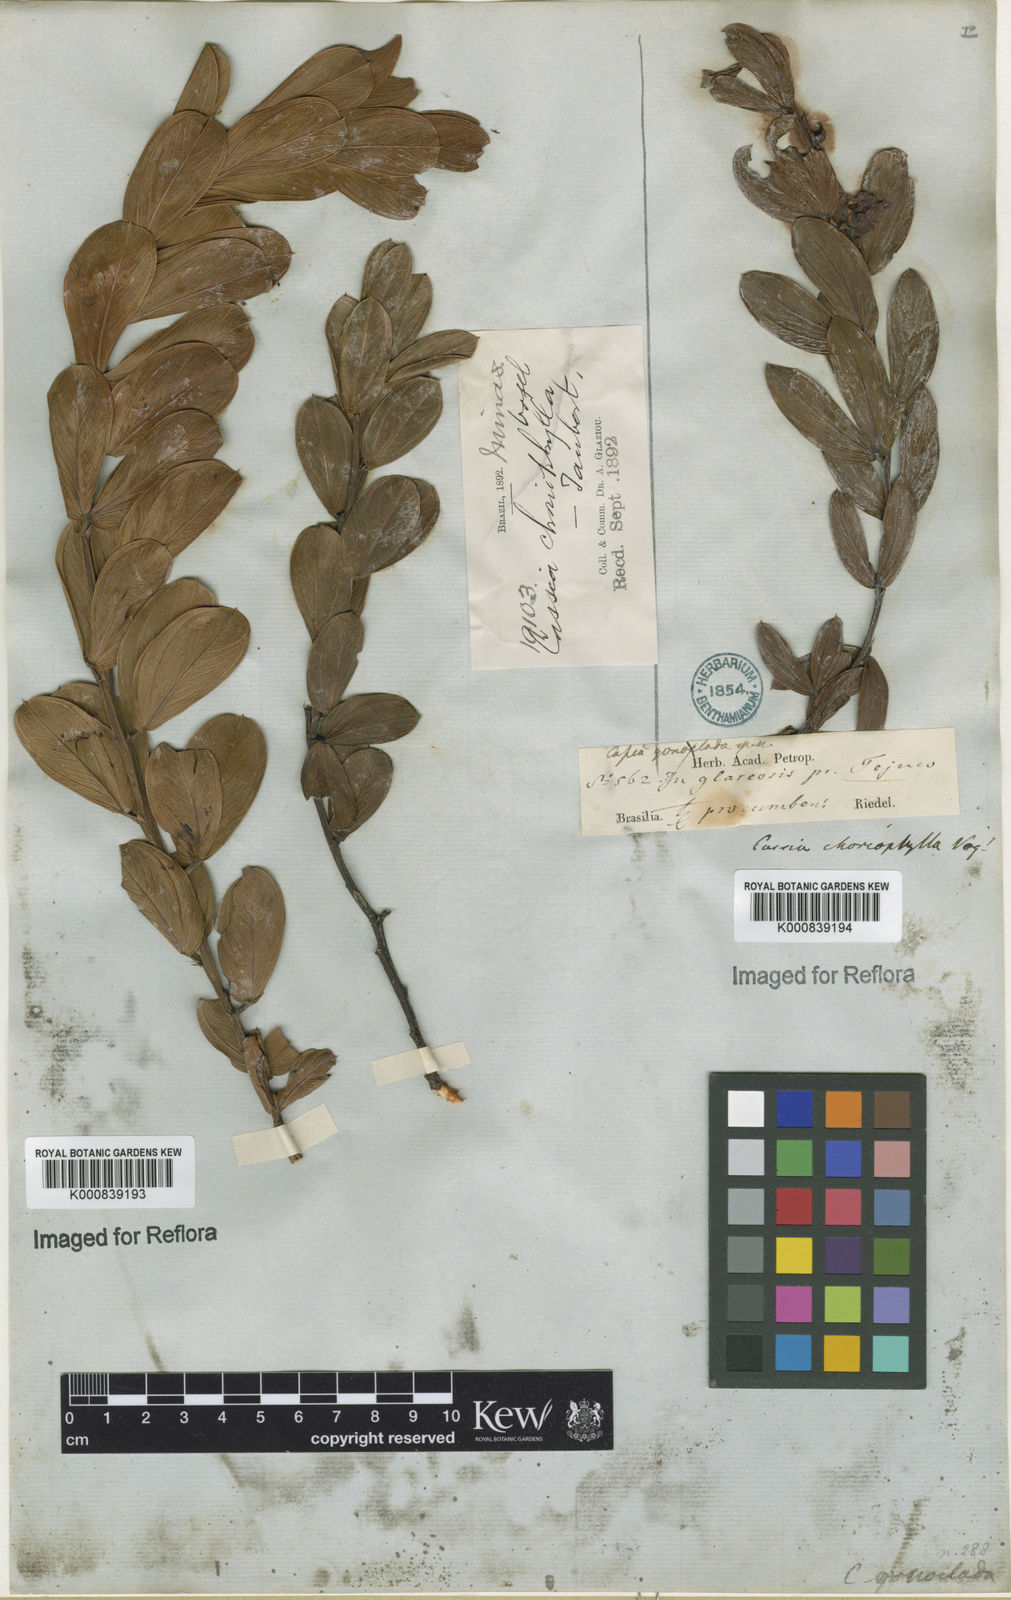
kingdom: Plantae
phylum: Tracheophyta
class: Magnoliopsida
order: Fabales
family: Fabaceae
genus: Chamaecrista
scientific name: Chamaecrista latifolia
